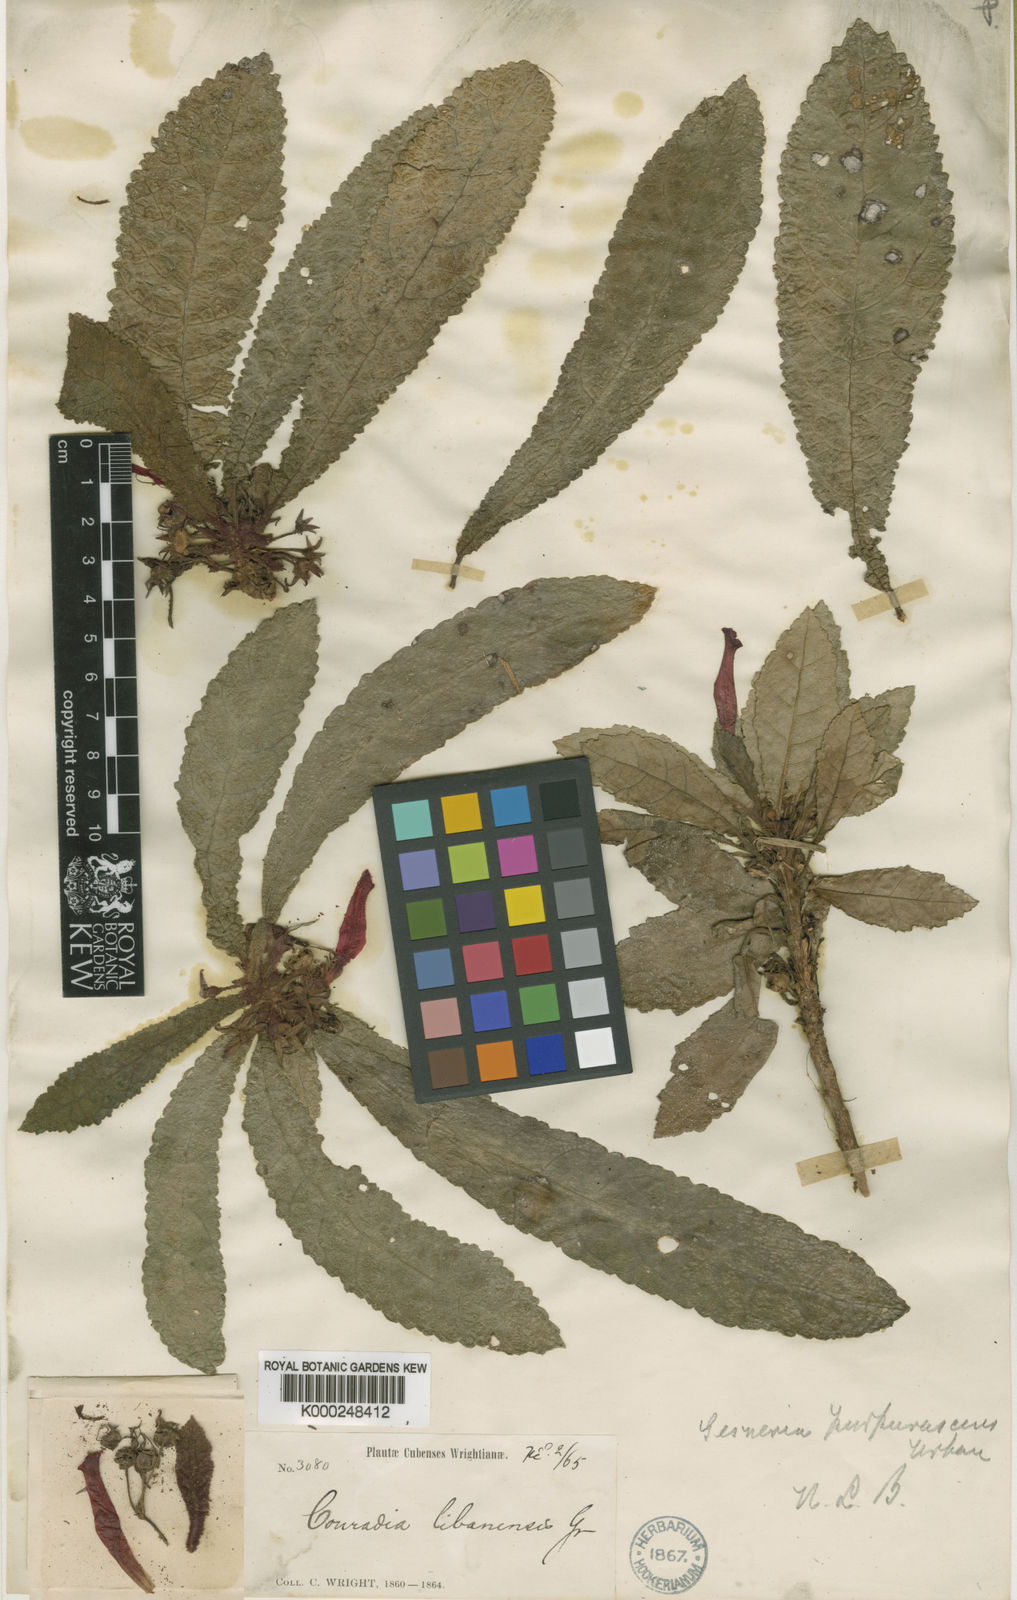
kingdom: Plantae
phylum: Tracheophyta
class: Magnoliopsida
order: Lamiales
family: Gesneriaceae
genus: Gesneria
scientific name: Gesneria purpurascens
